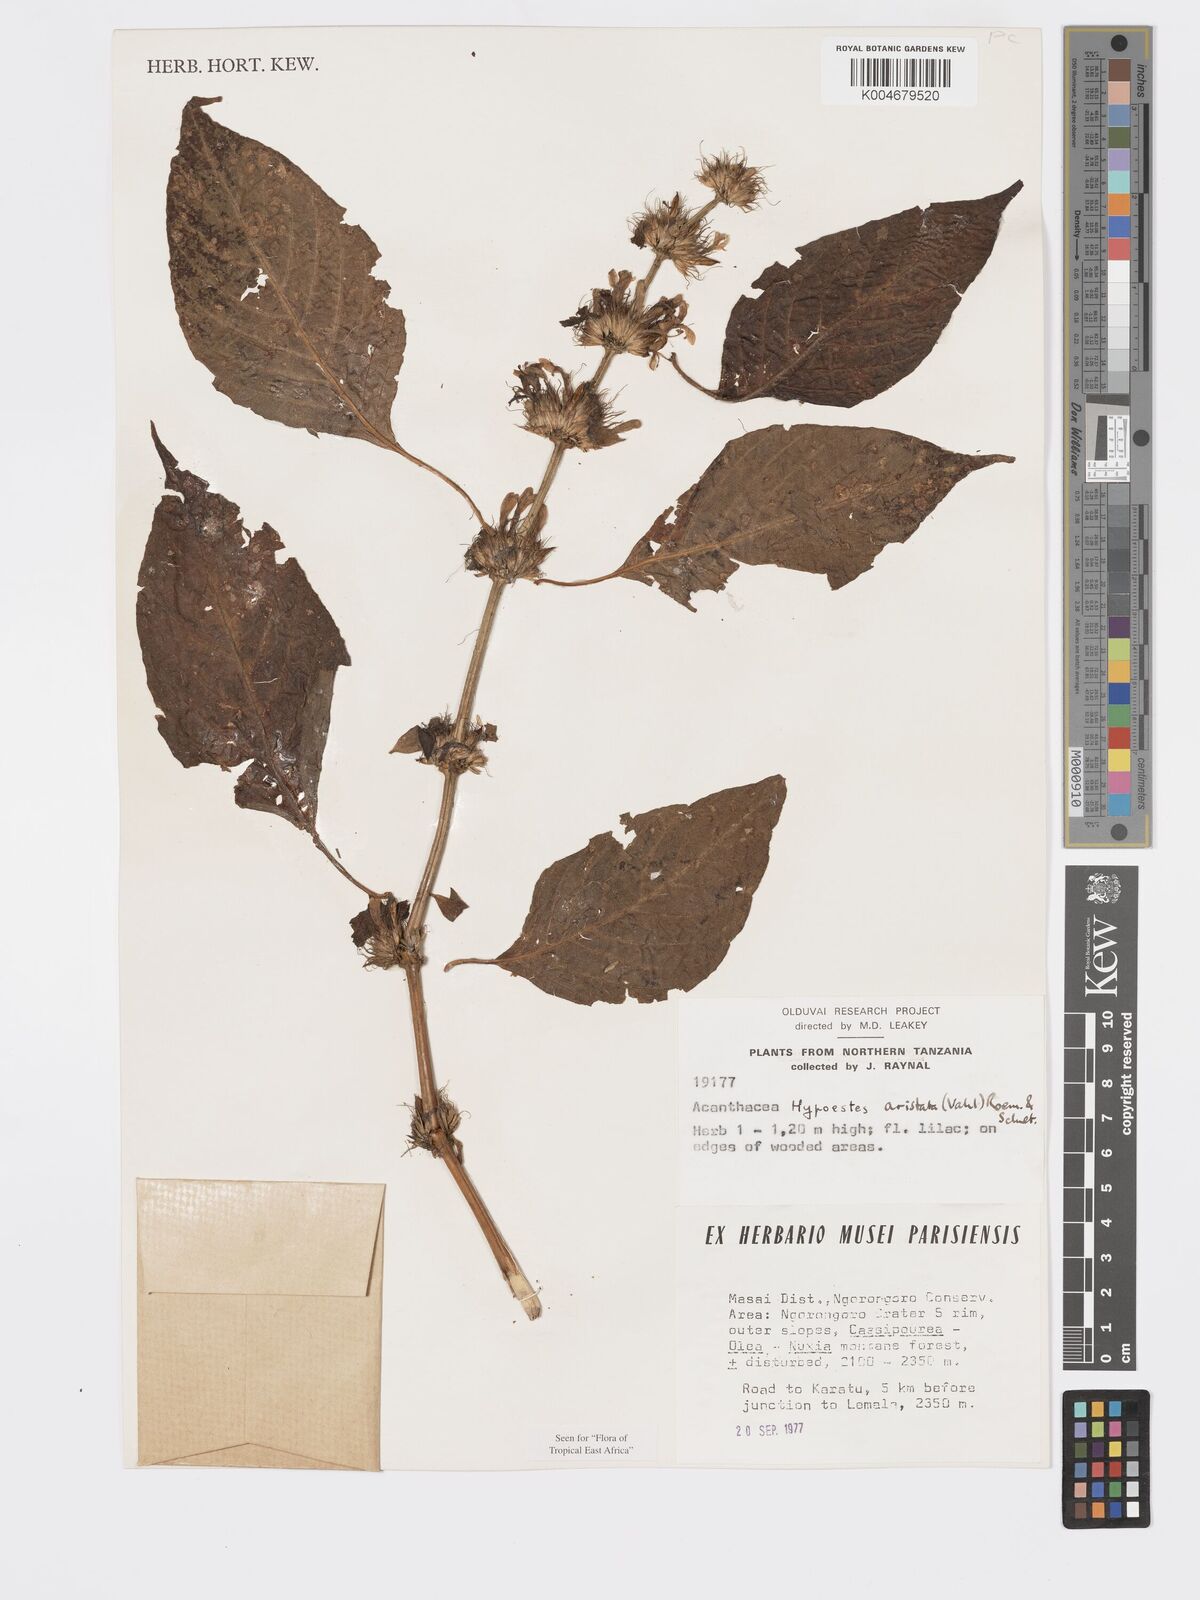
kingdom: Plantae
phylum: Tracheophyta
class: Magnoliopsida
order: Lamiales
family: Acanthaceae
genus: Hypoestes
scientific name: Hypoestes aristata
